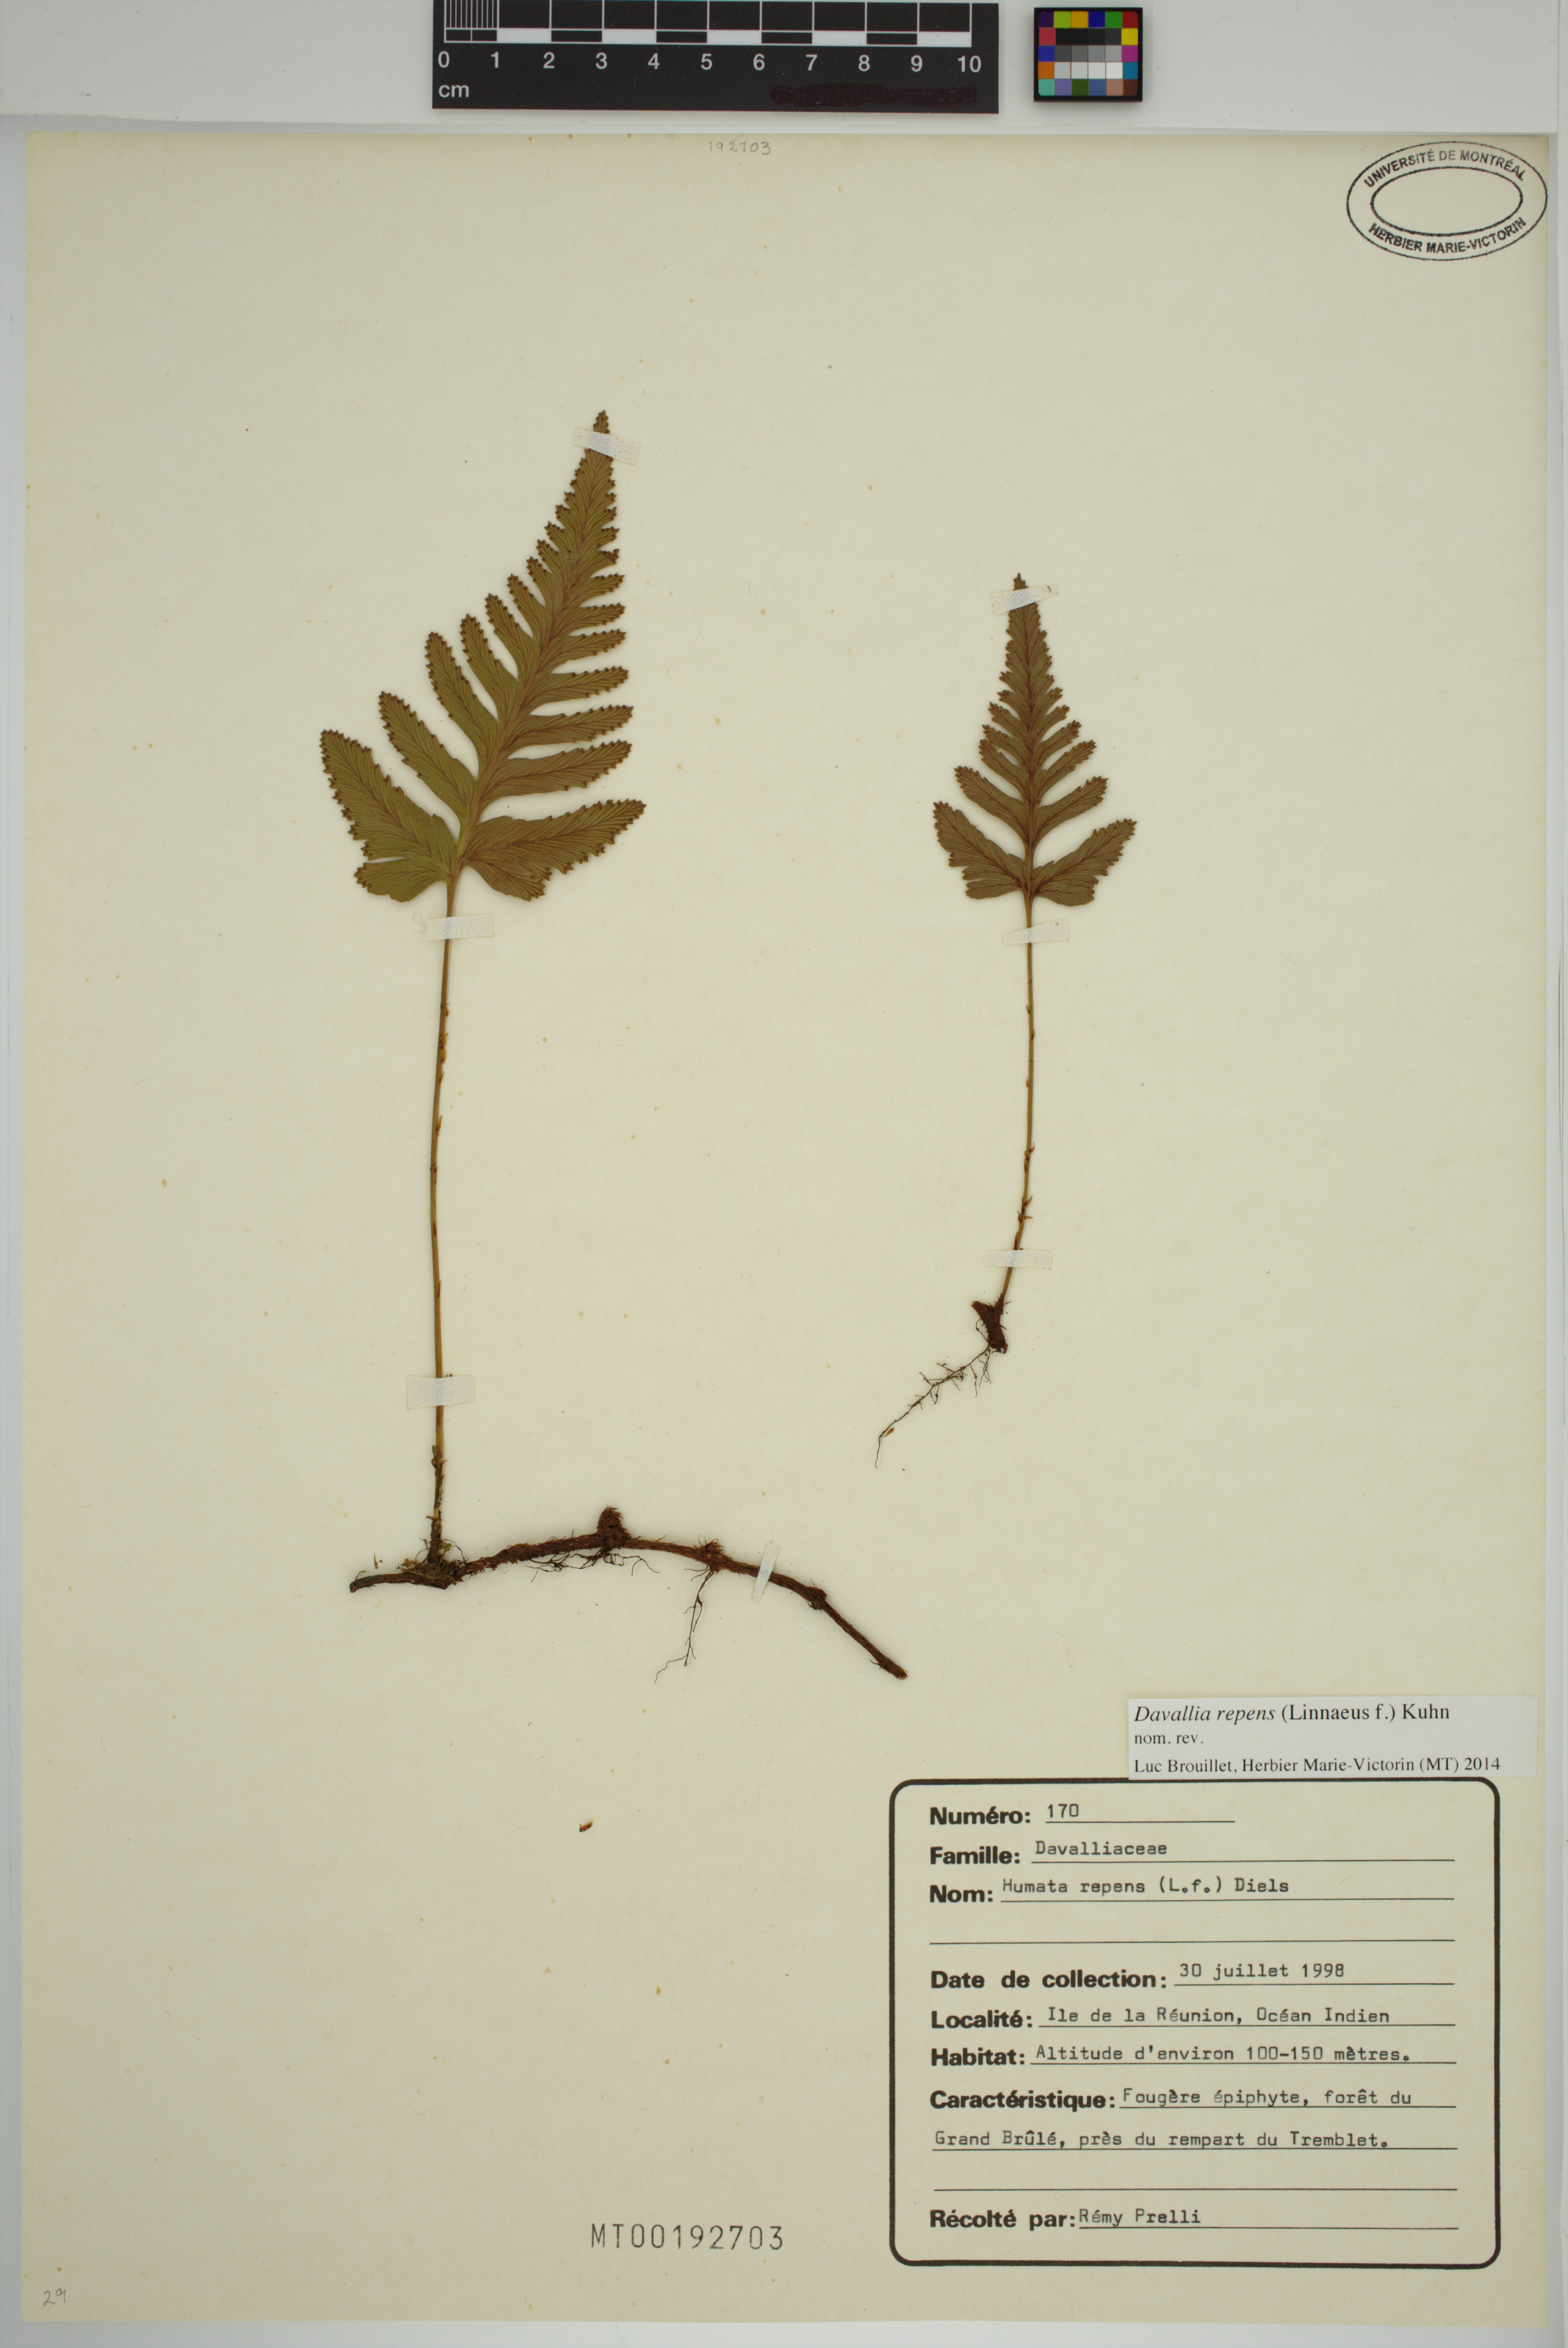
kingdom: Plantae
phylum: Tracheophyta
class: Polypodiopsida
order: Polypodiales
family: Davalliaceae
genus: Davallia
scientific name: Davallia repens
